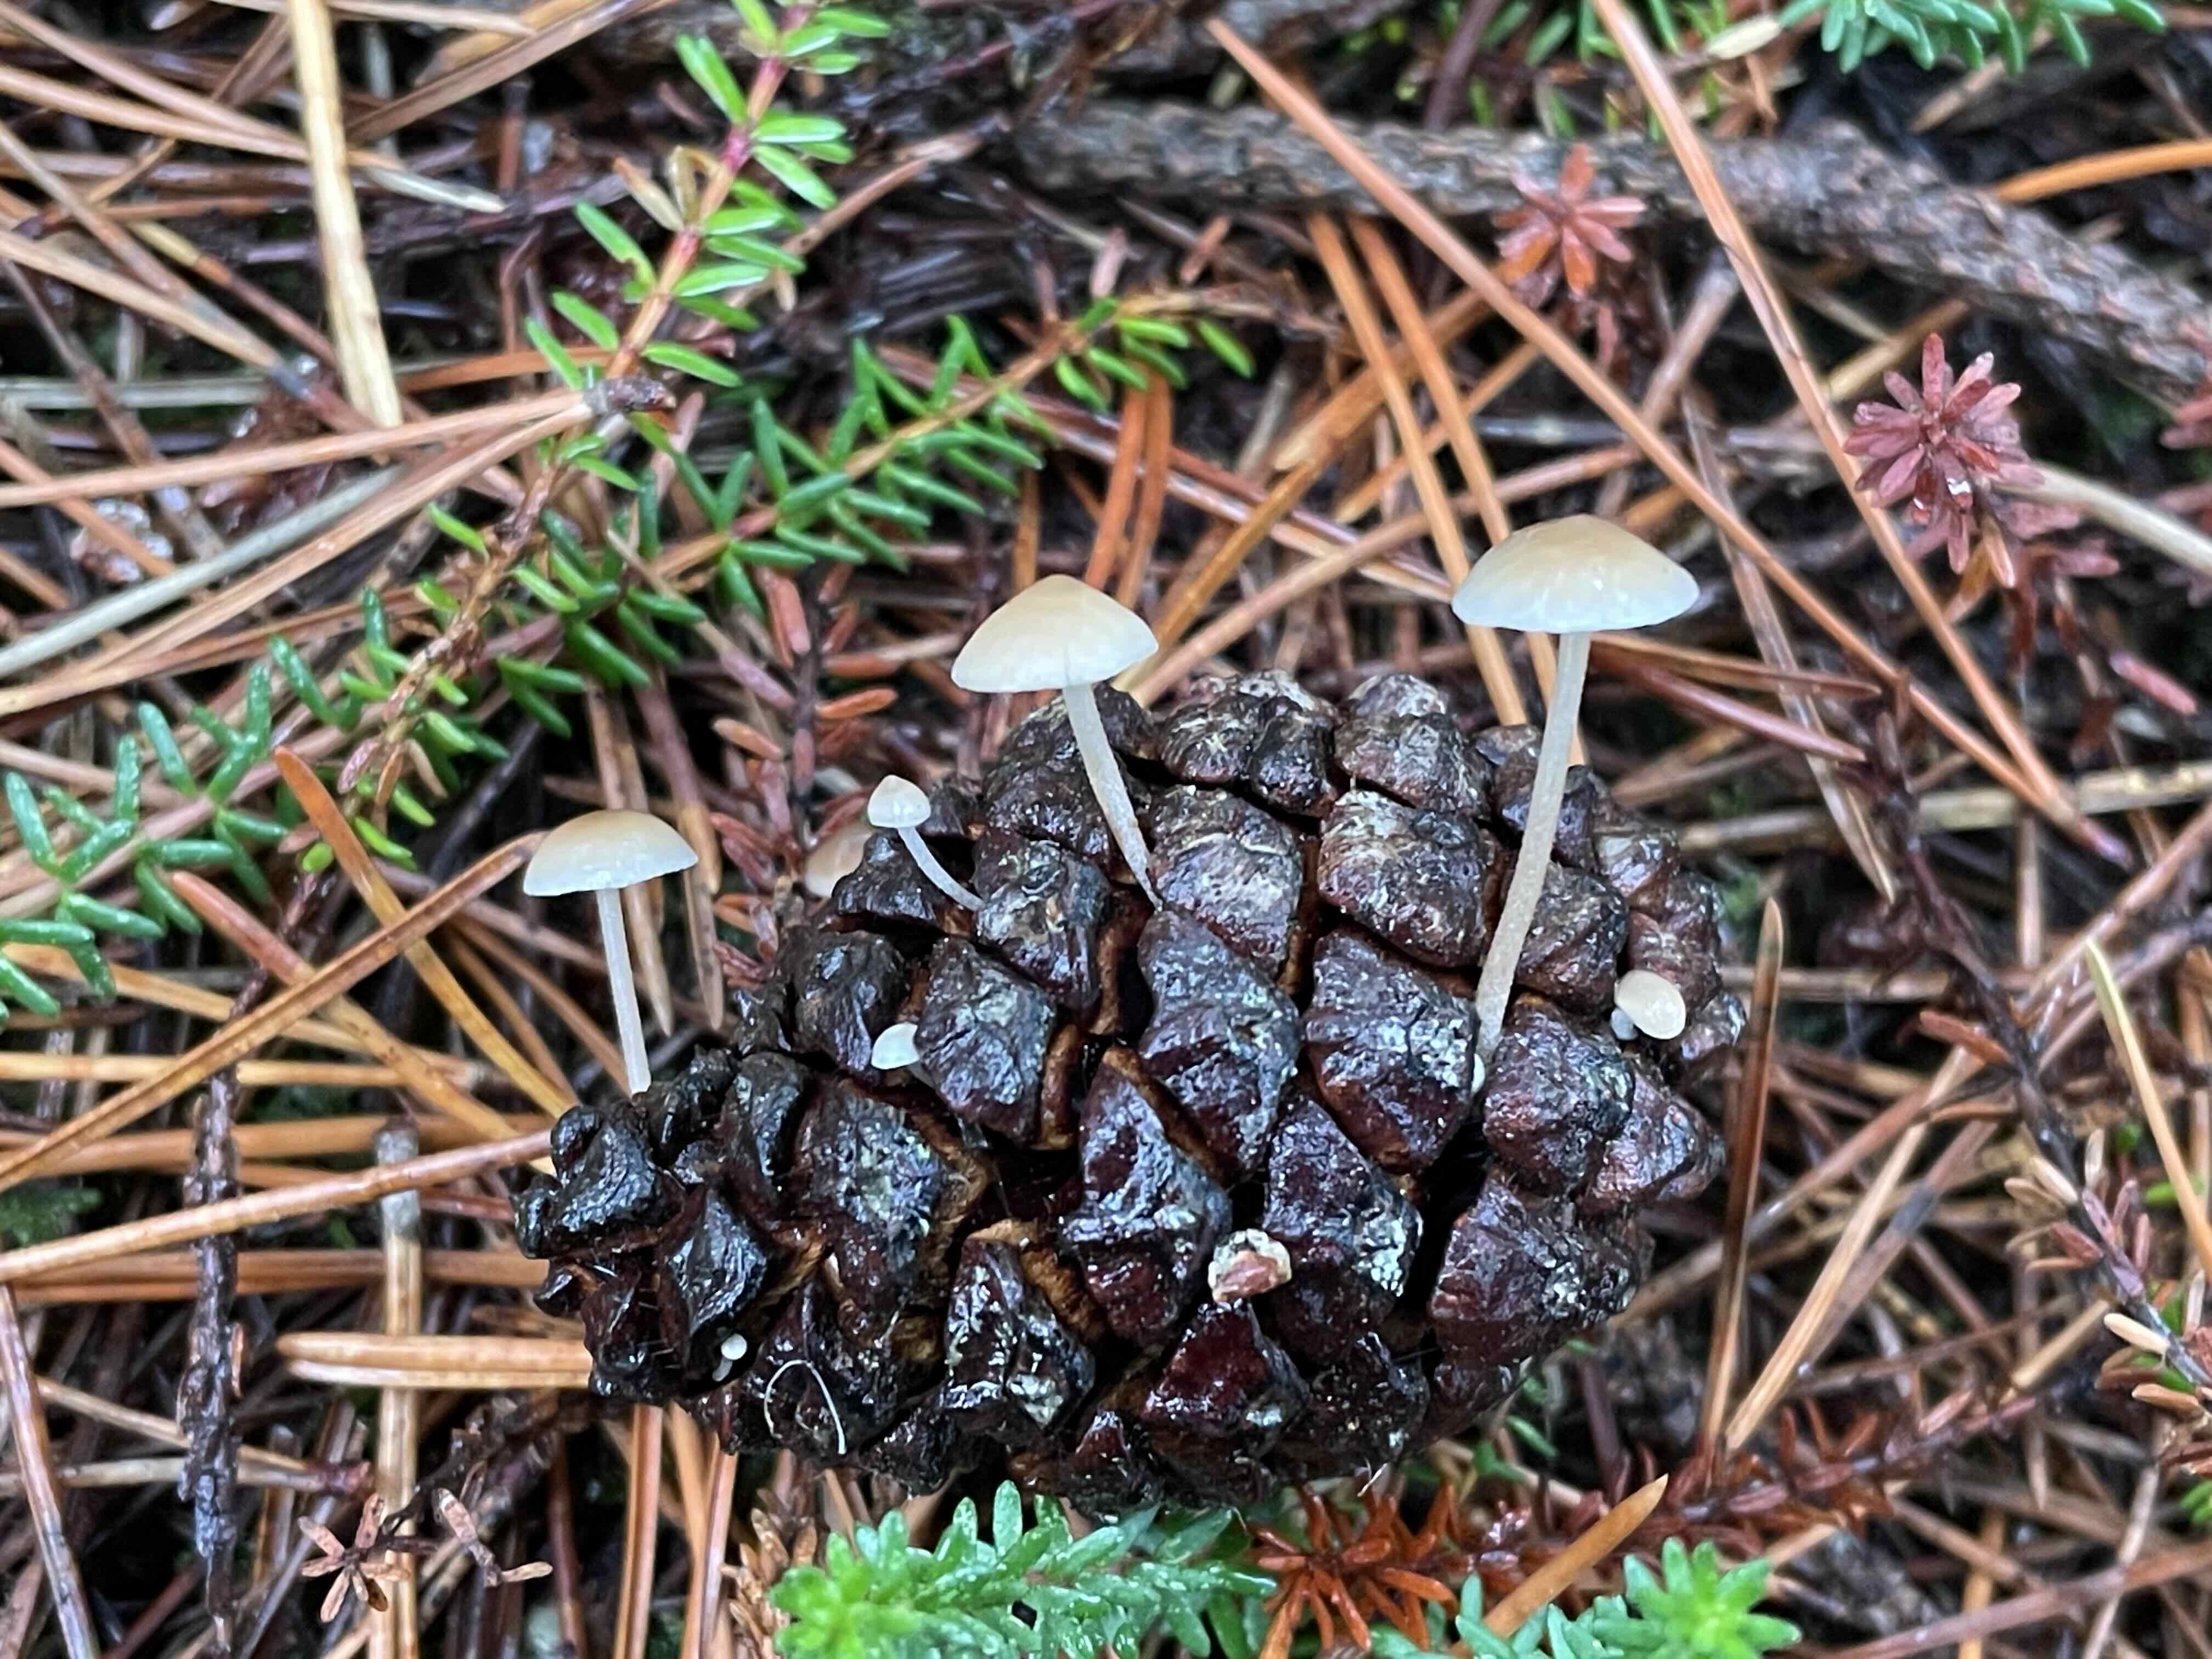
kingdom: Fungi
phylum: Basidiomycota
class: Agaricomycetes
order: Agaricales
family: Marasmiaceae
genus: Baeospora
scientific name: Baeospora myosura
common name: koglebruskhat
